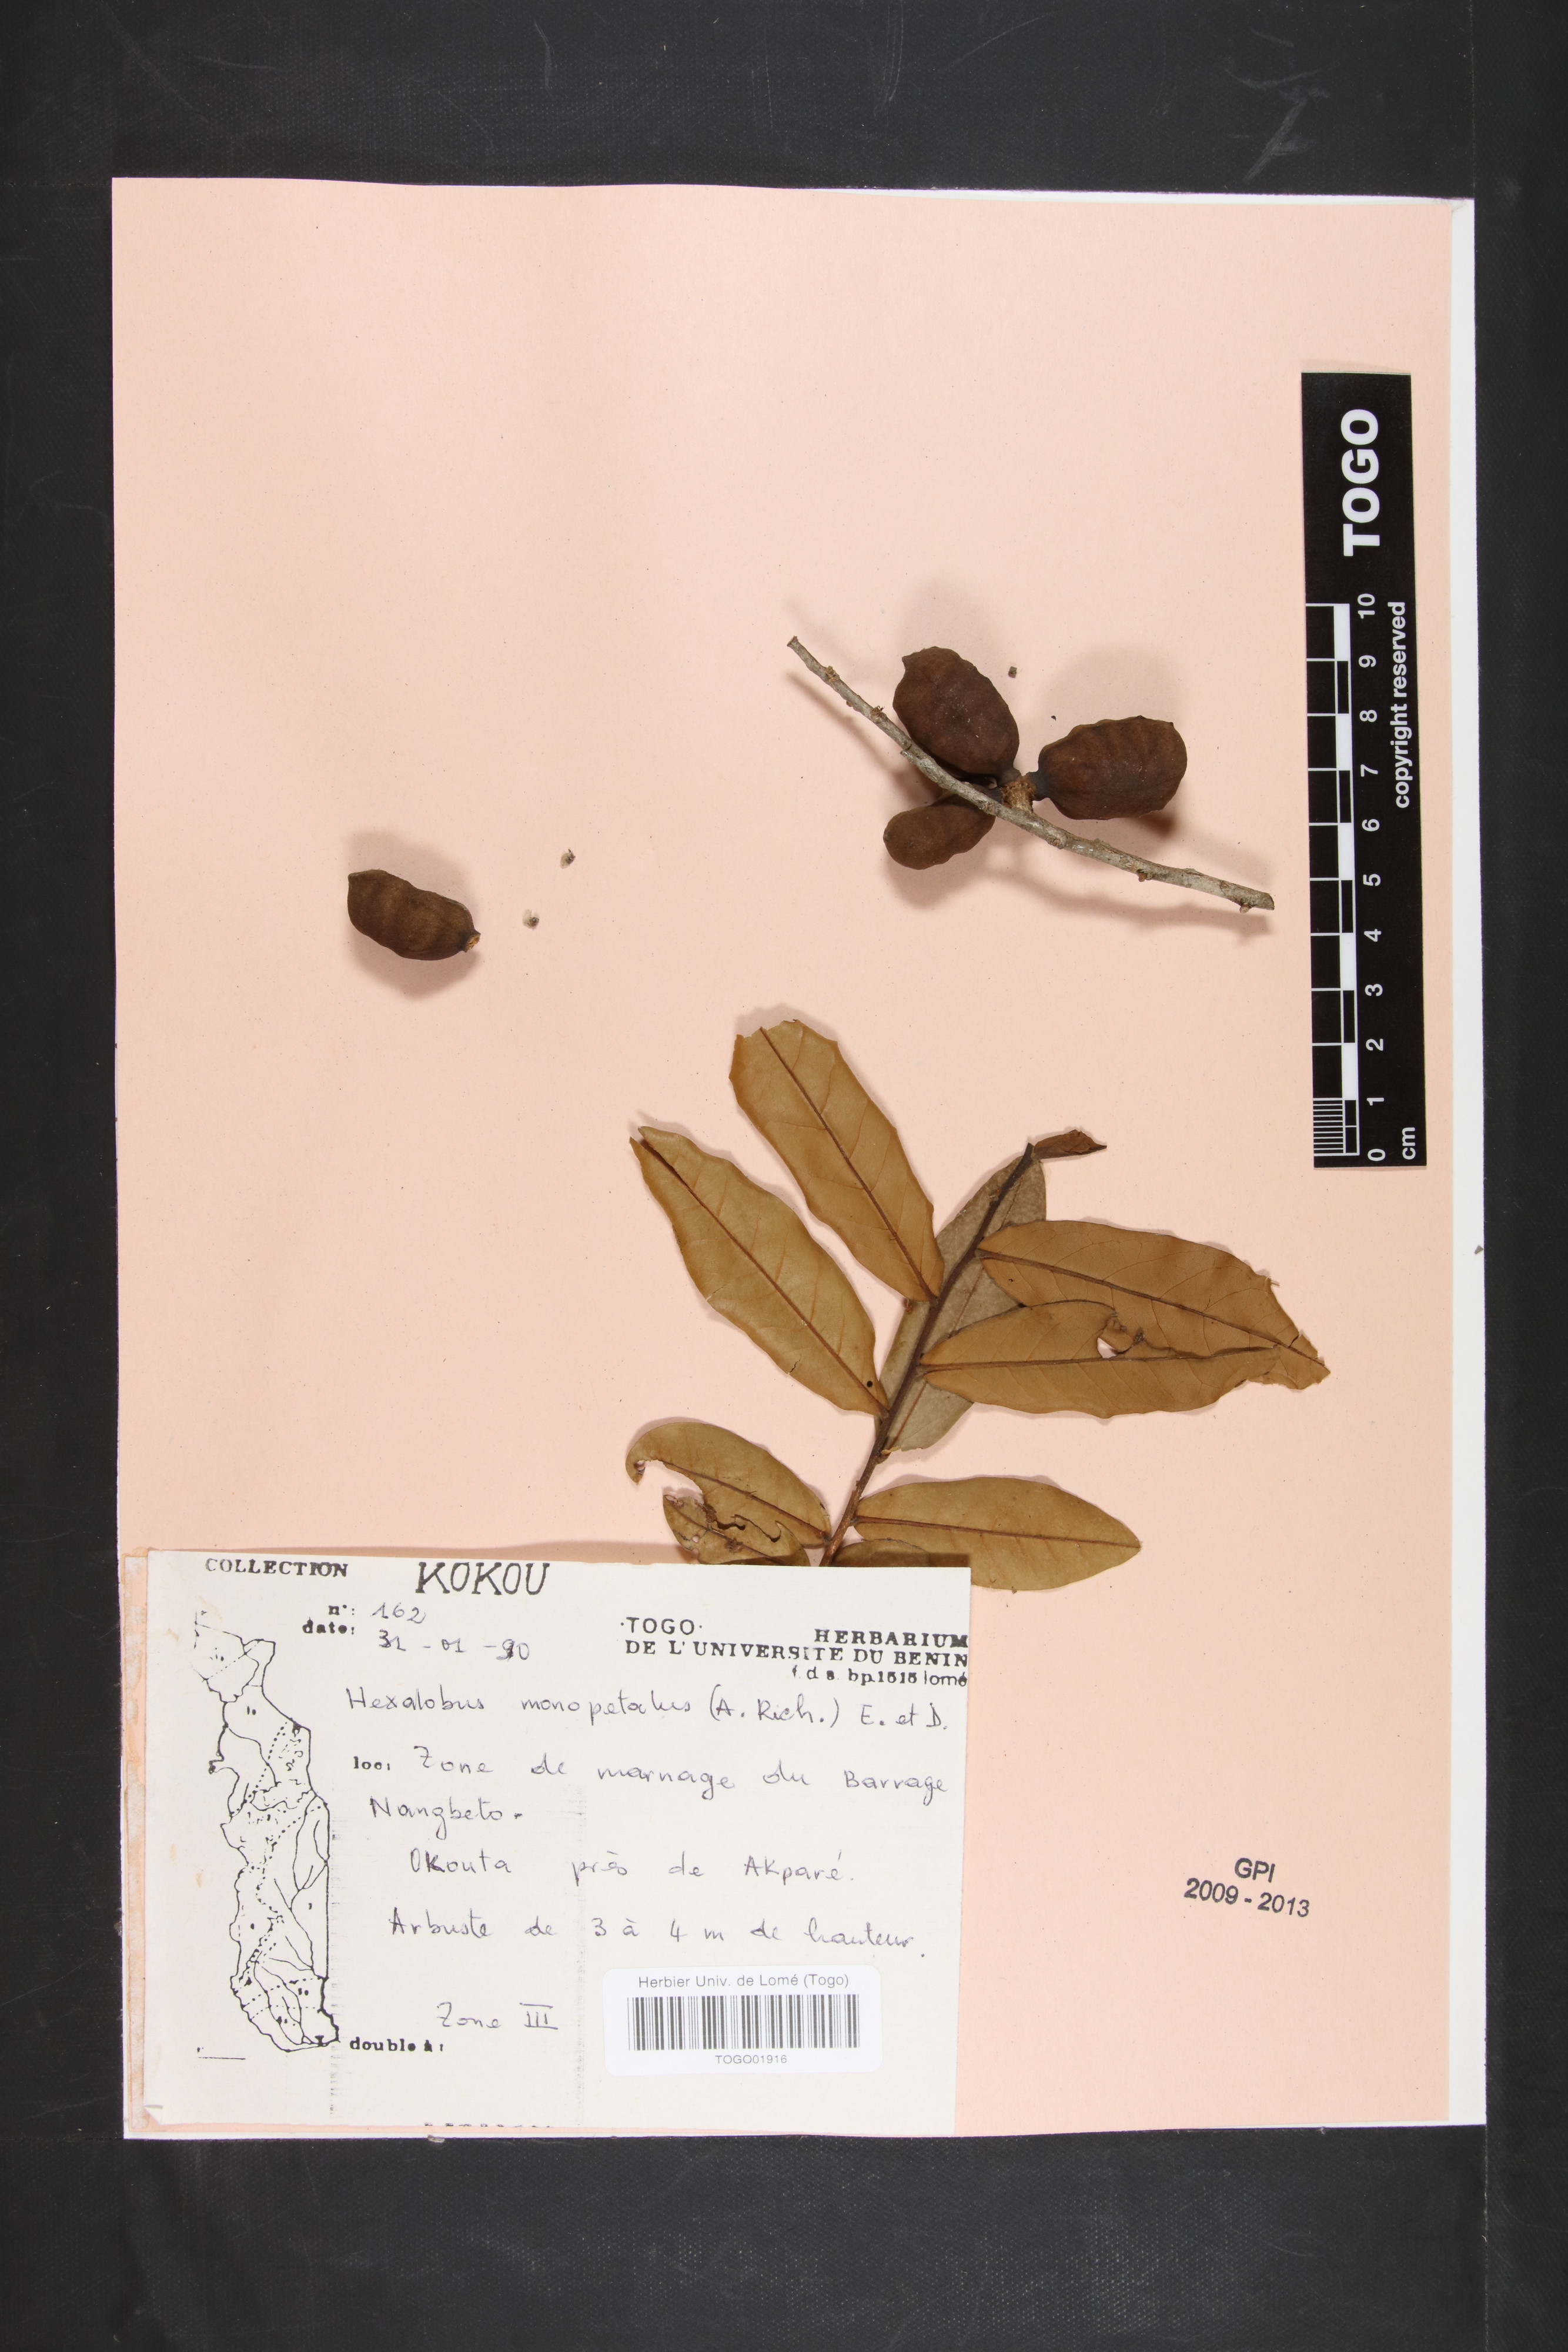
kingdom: Plantae
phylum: Tracheophyta
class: Magnoliopsida
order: Magnoliales
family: Annonaceae
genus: Hexalobus
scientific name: Hexalobus monopetalus
